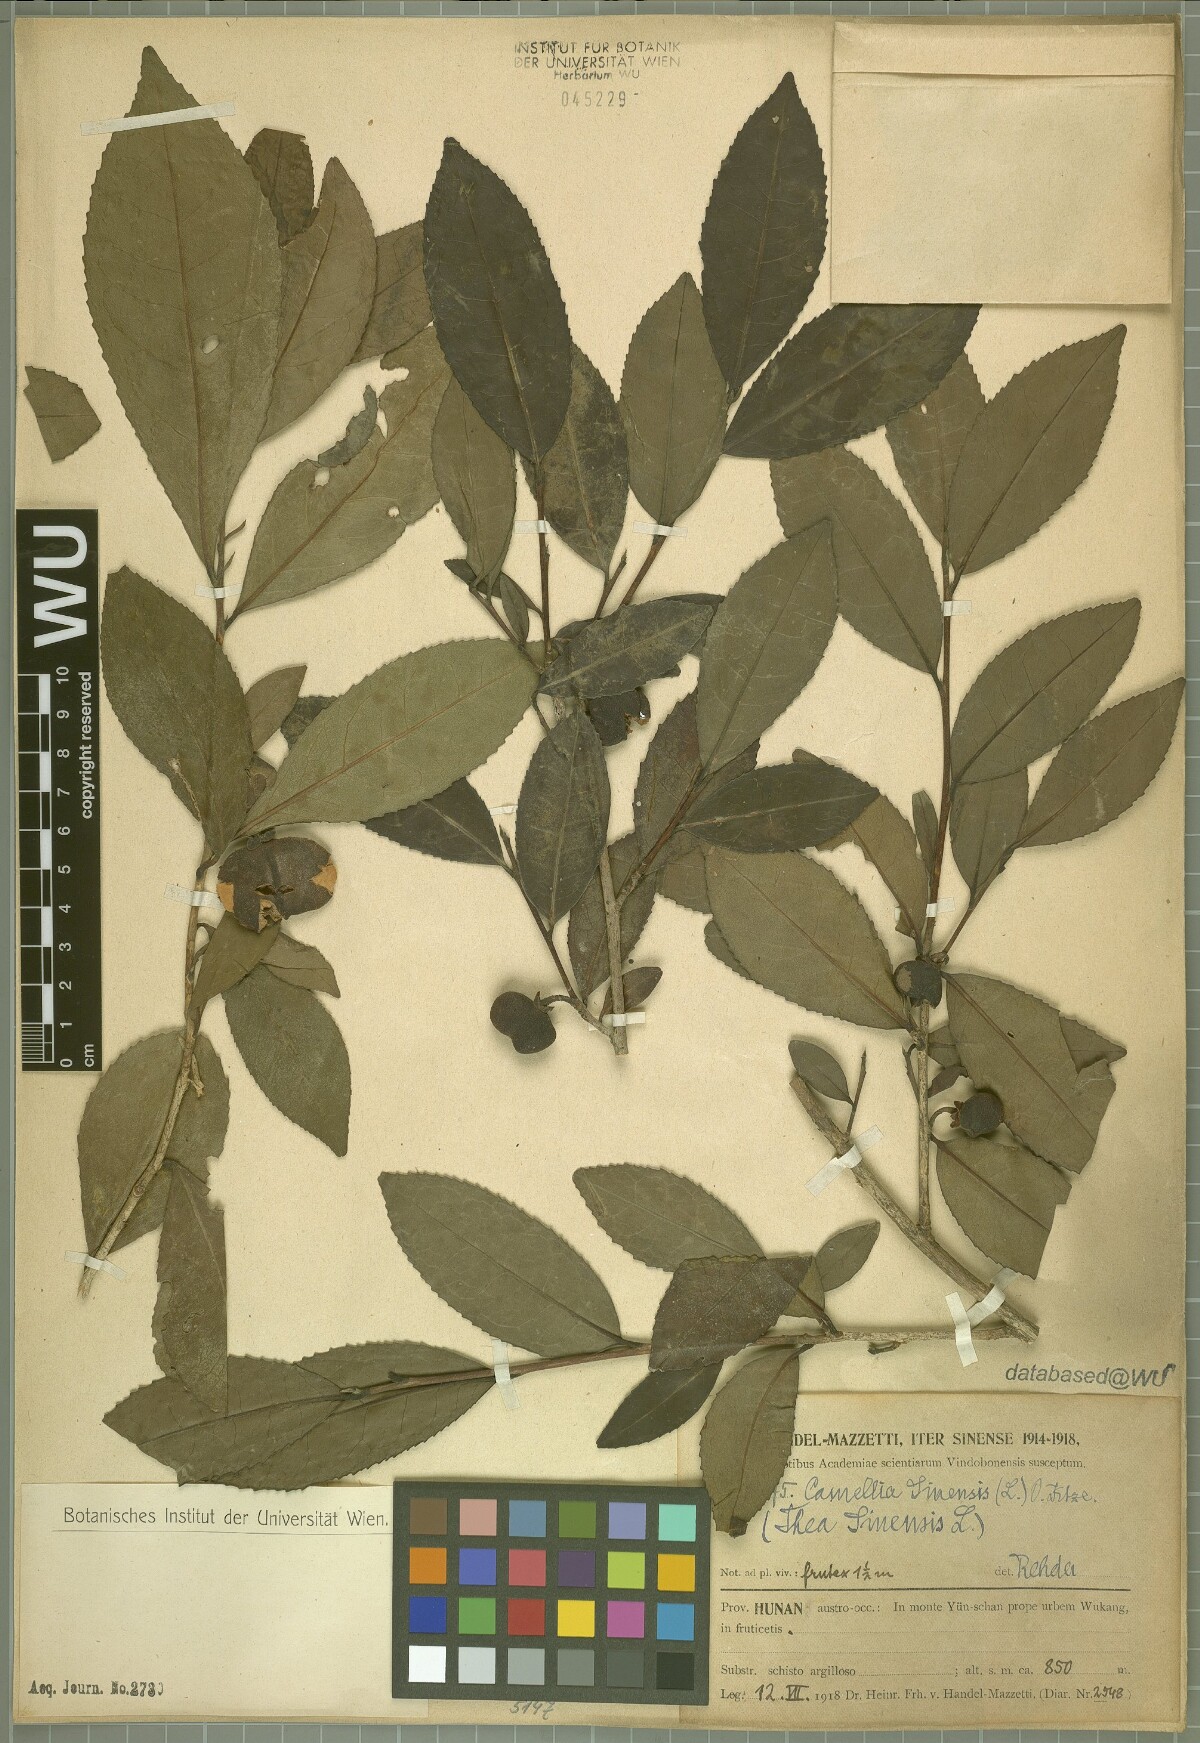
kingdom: Plantae
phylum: Tracheophyta
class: Magnoliopsida
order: Ericales
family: Theaceae
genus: Camellia
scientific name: Camellia sinensis
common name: Tea
